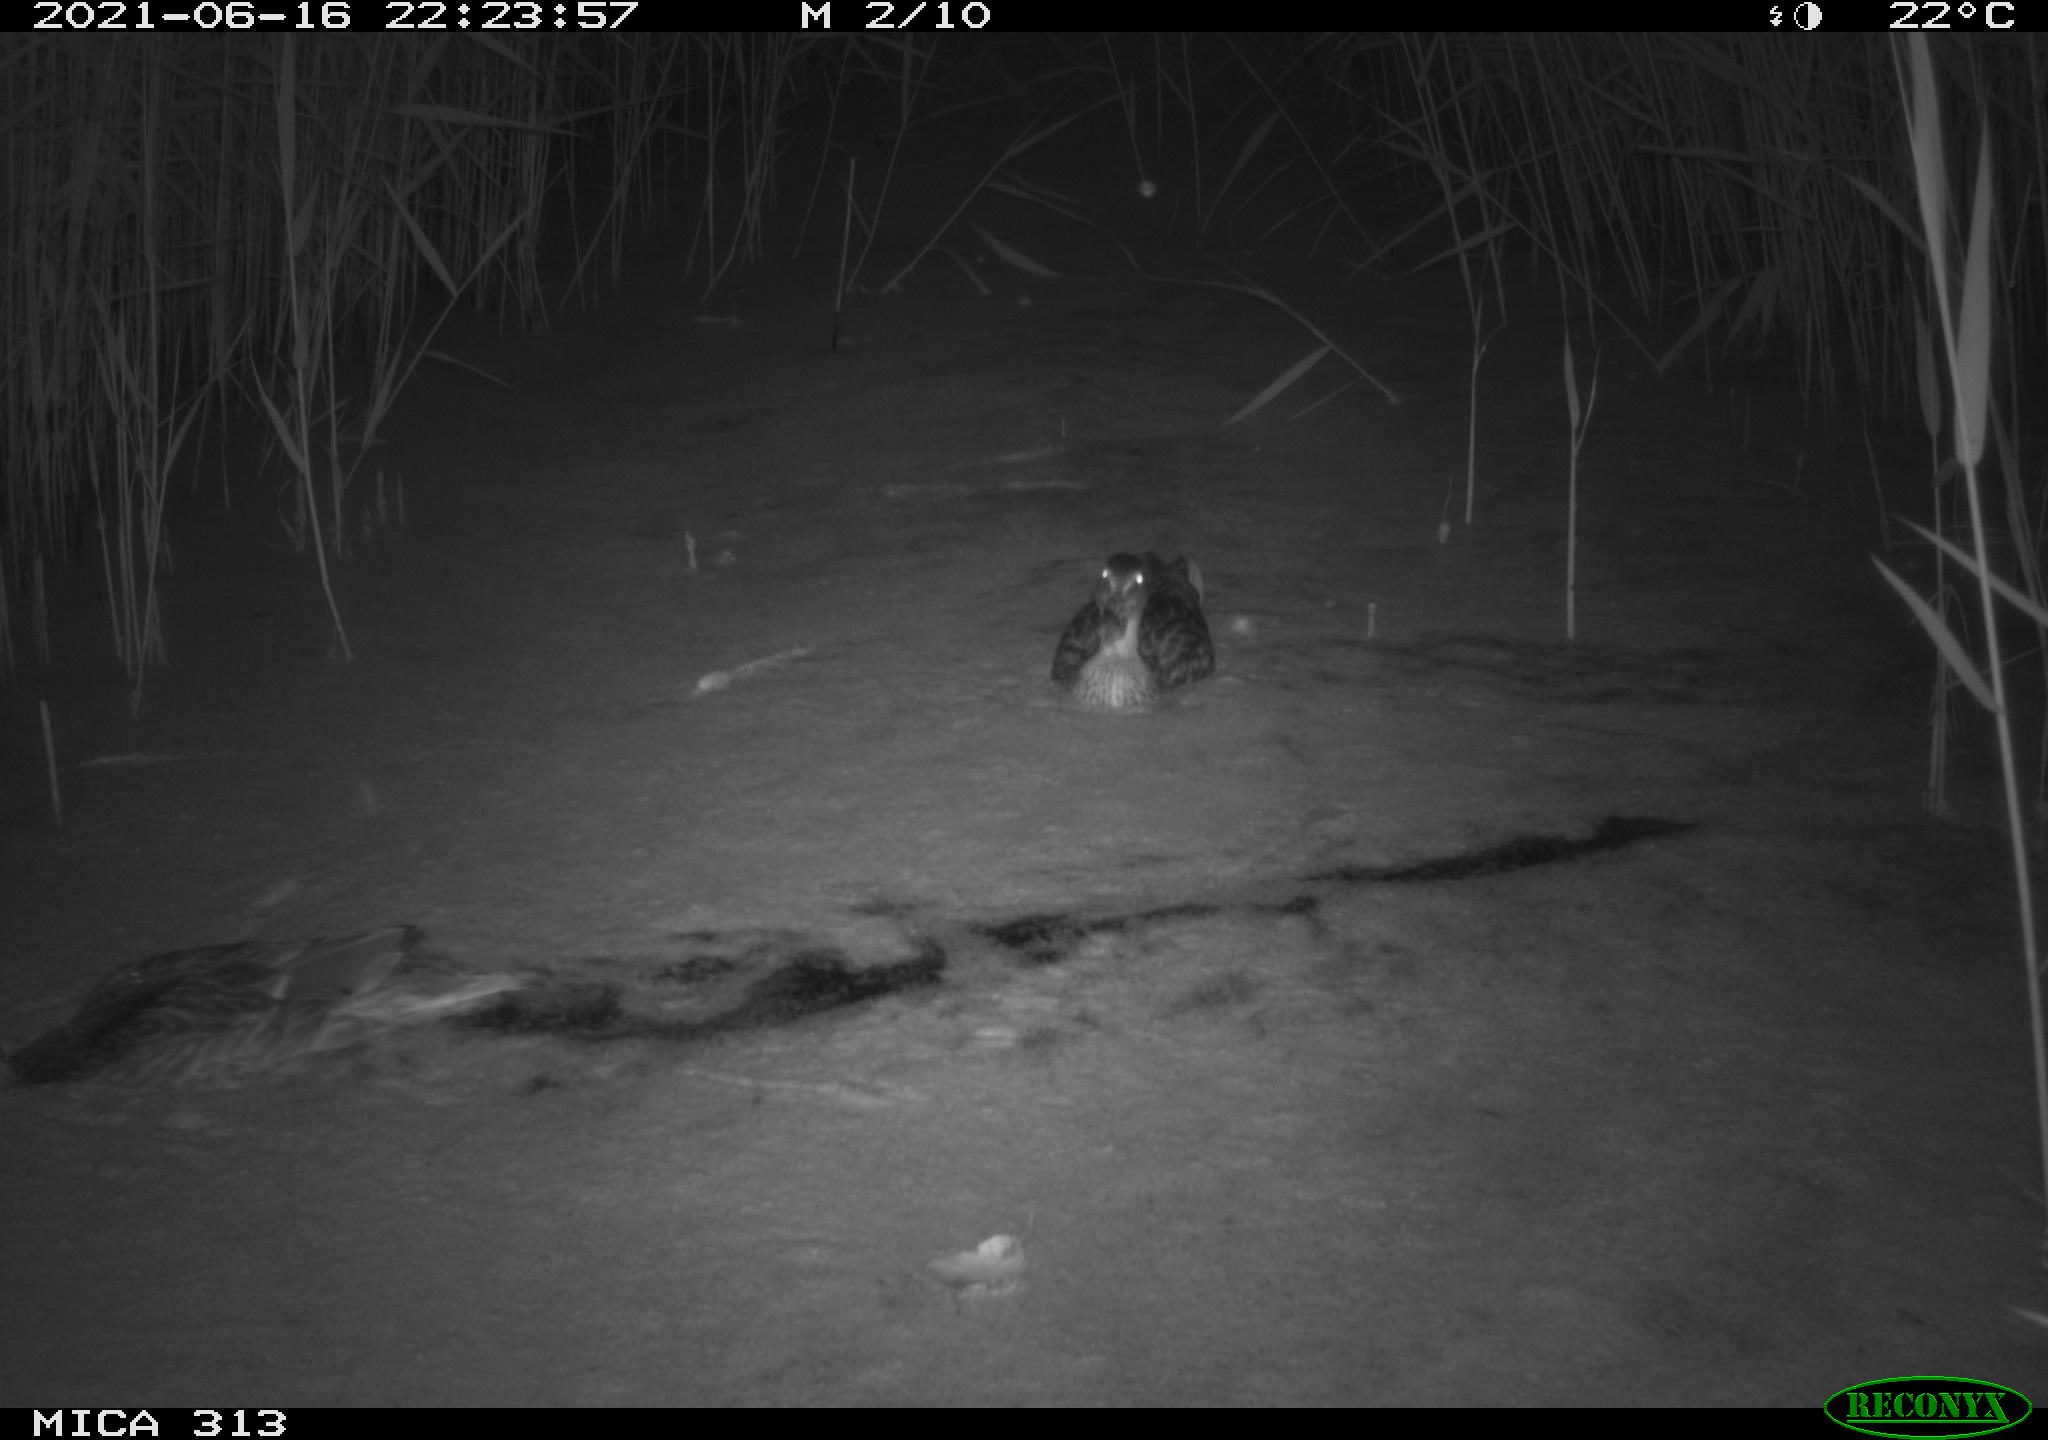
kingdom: Animalia
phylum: Chordata
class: Aves
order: Gruiformes
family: Rallidae
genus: Fulica
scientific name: Fulica atra
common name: Eurasian coot
